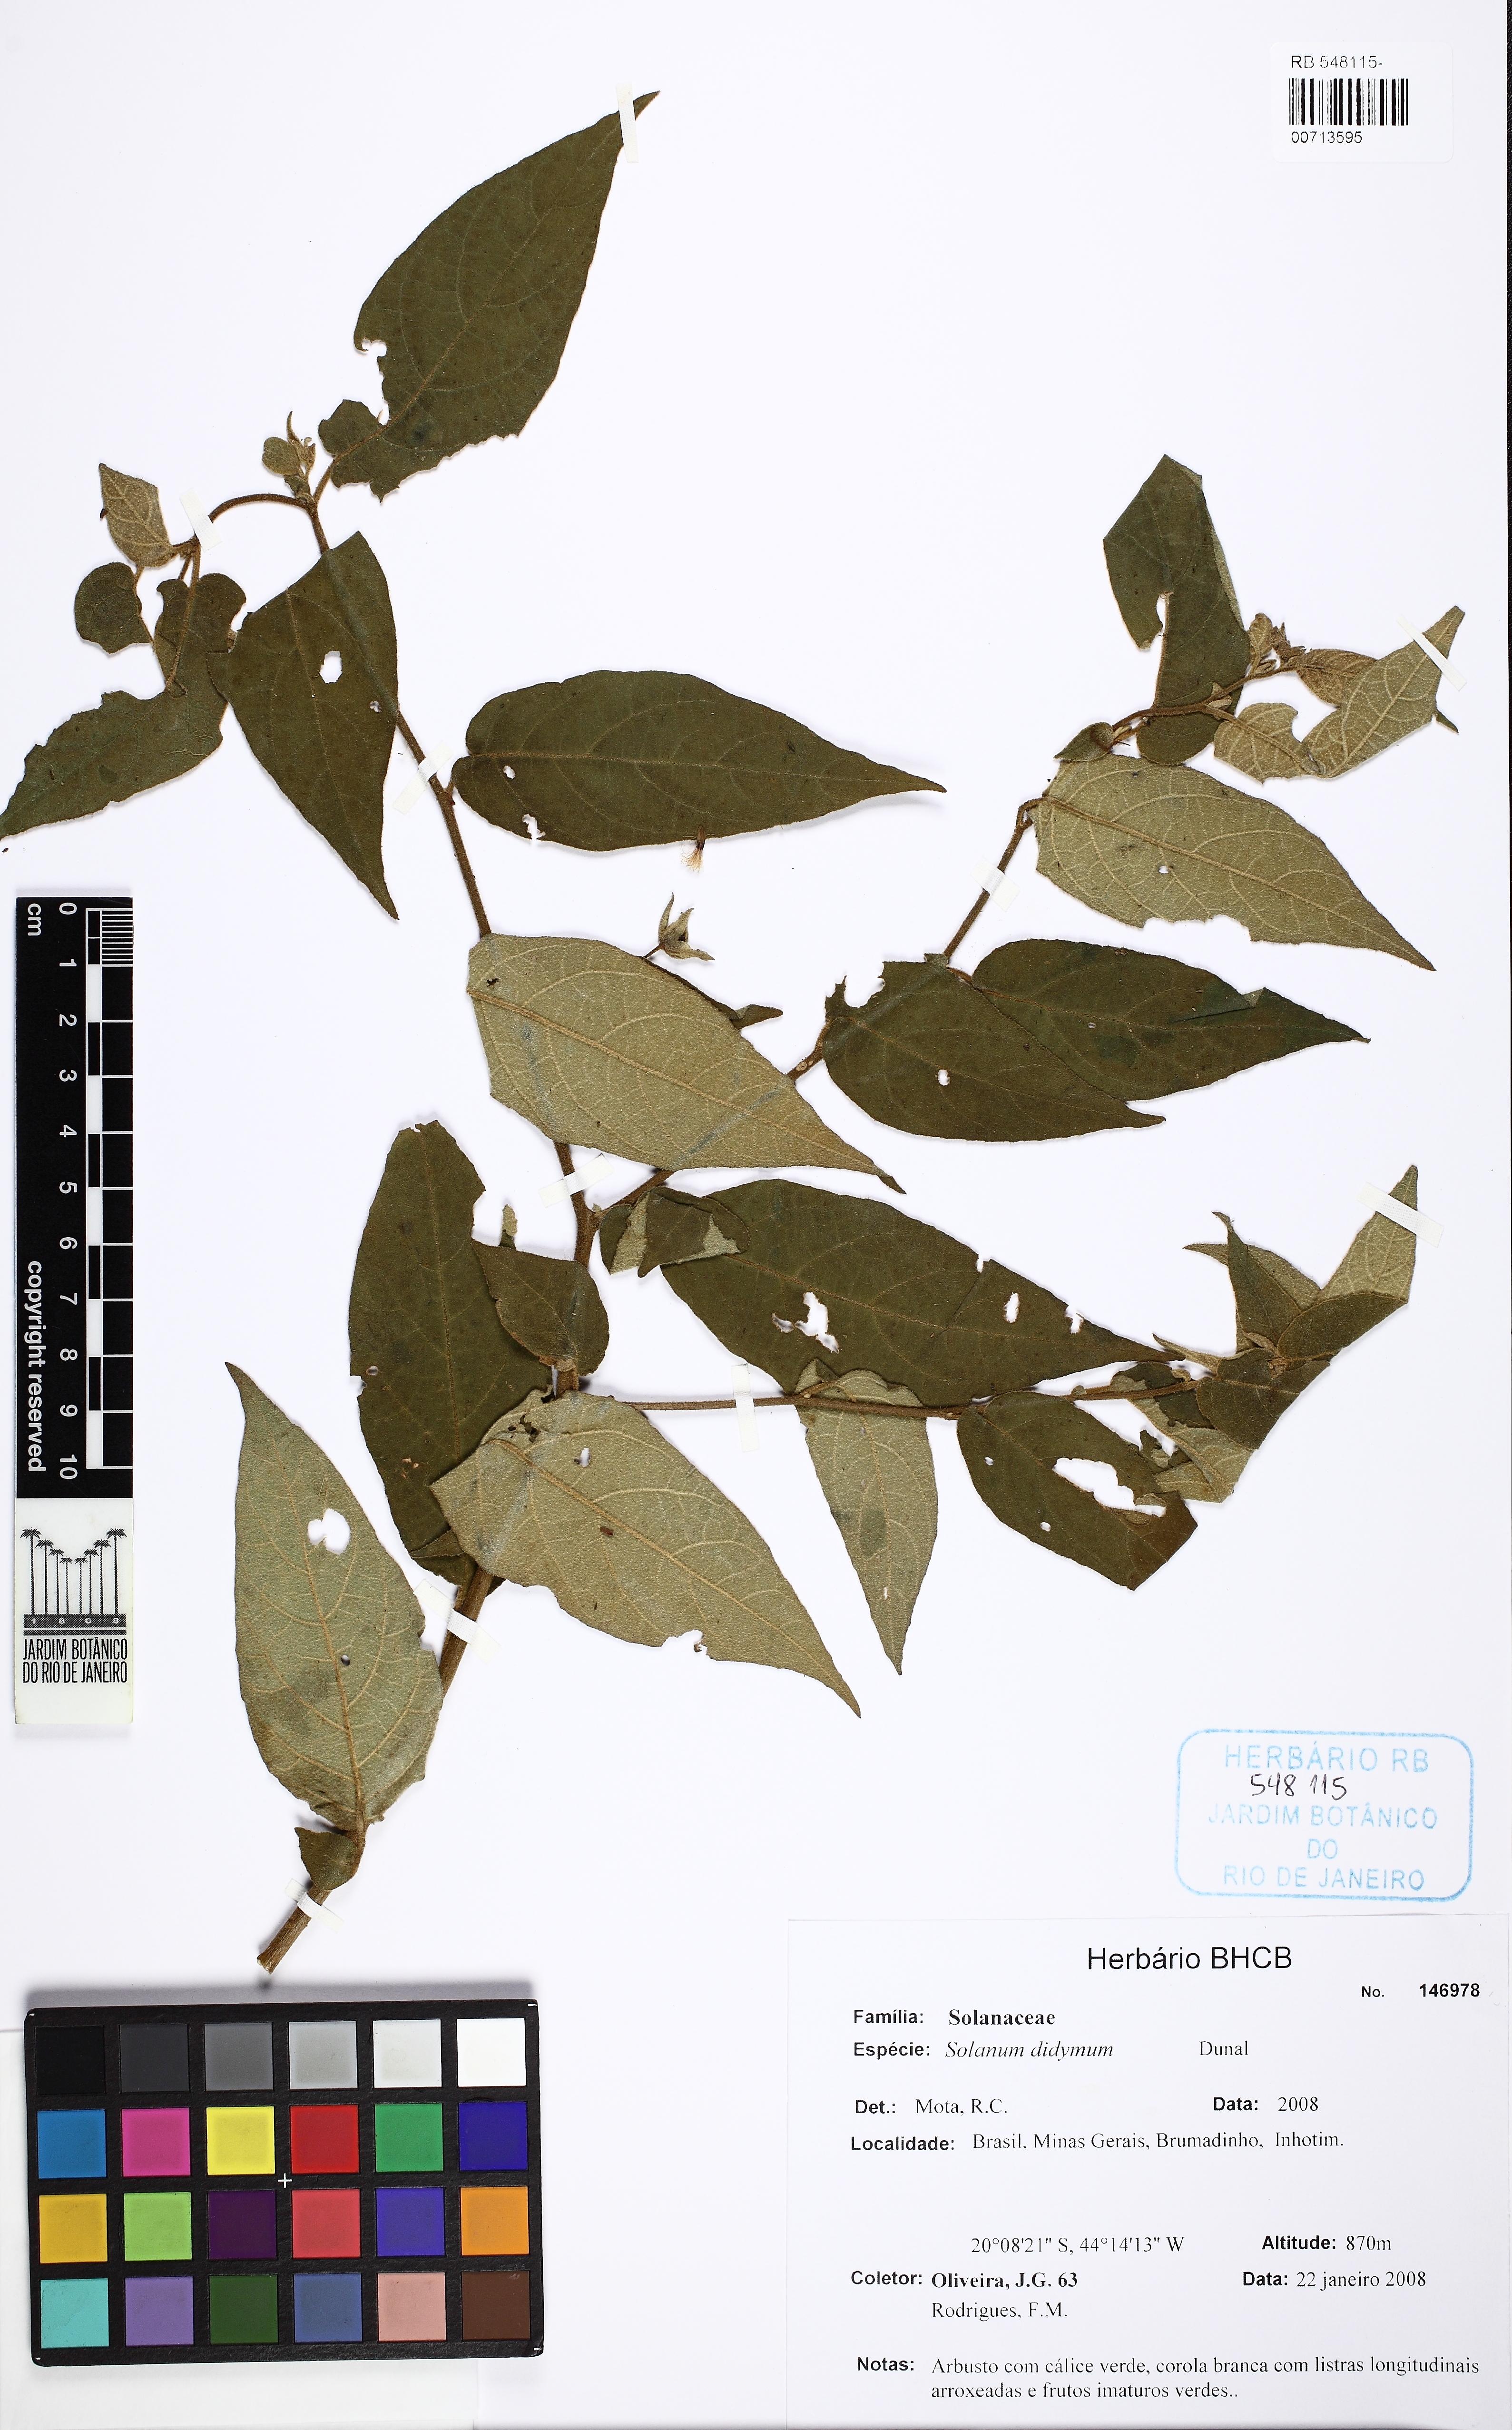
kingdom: Plantae
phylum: Tracheophyta
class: Magnoliopsida
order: Solanales
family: Solanaceae
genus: Solanum
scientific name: Solanum didymum
